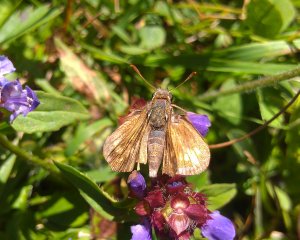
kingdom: Animalia
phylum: Arthropoda
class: Insecta
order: Lepidoptera
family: Hesperiidae
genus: Polites
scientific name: Polites coras
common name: Peck's Skipper
